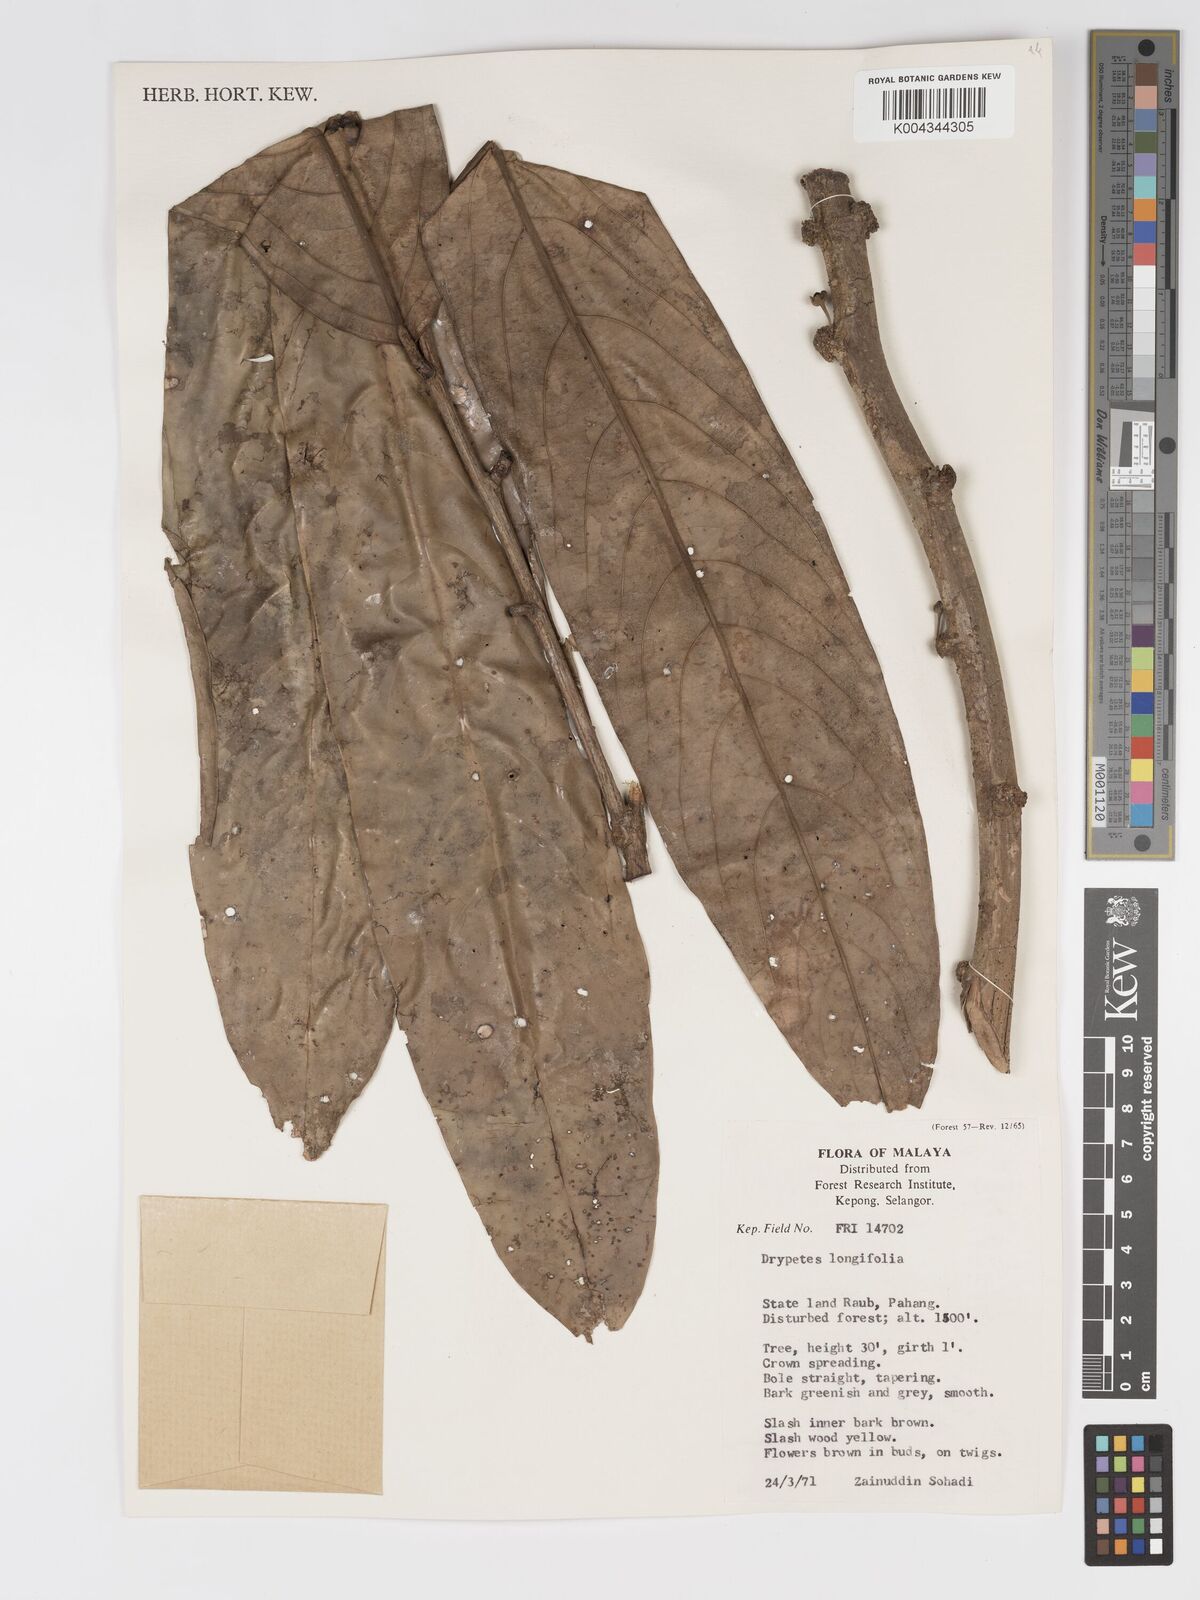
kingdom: Plantae
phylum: Tracheophyta
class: Magnoliopsida
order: Malpighiales
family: Putranjivaceae
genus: Drypetes
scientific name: Drypetes longifolia
